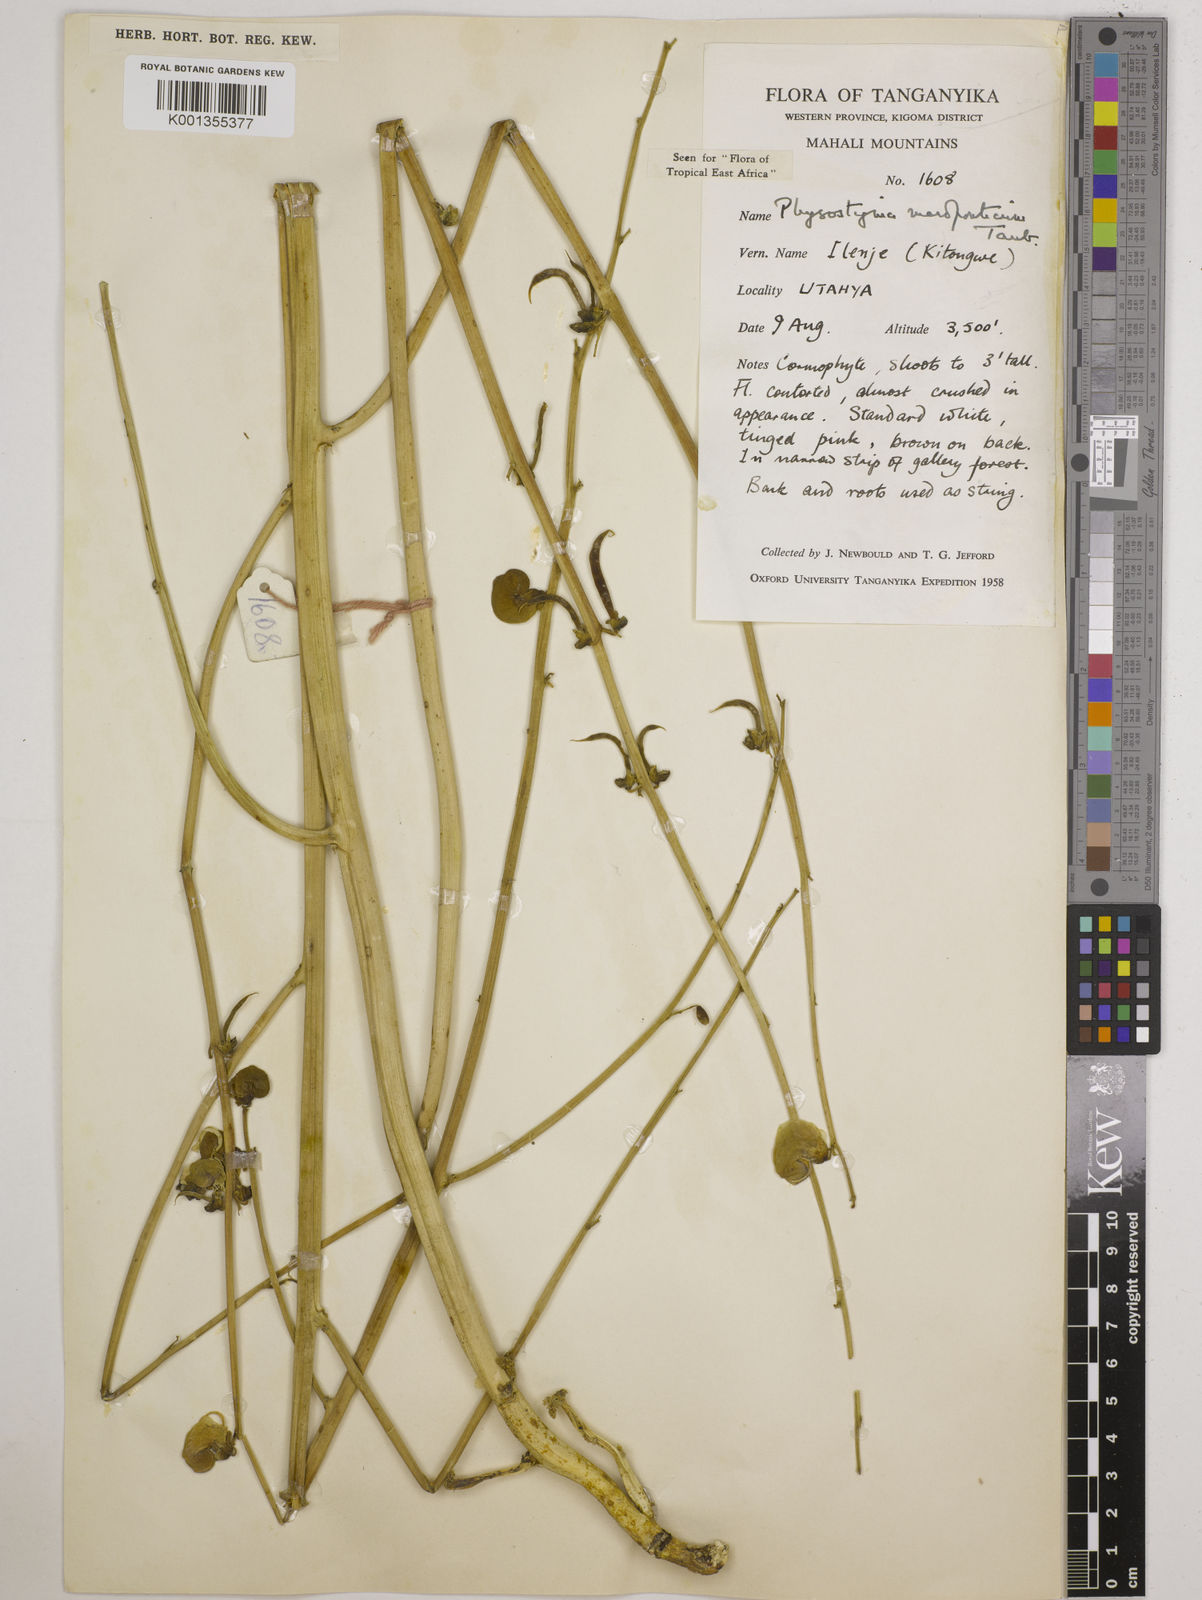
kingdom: Plantae
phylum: Tracheophyta
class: Magnoliopsida
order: Fabales
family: Fabaceae
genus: Physostigma
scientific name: Physostigma mesoponticum
